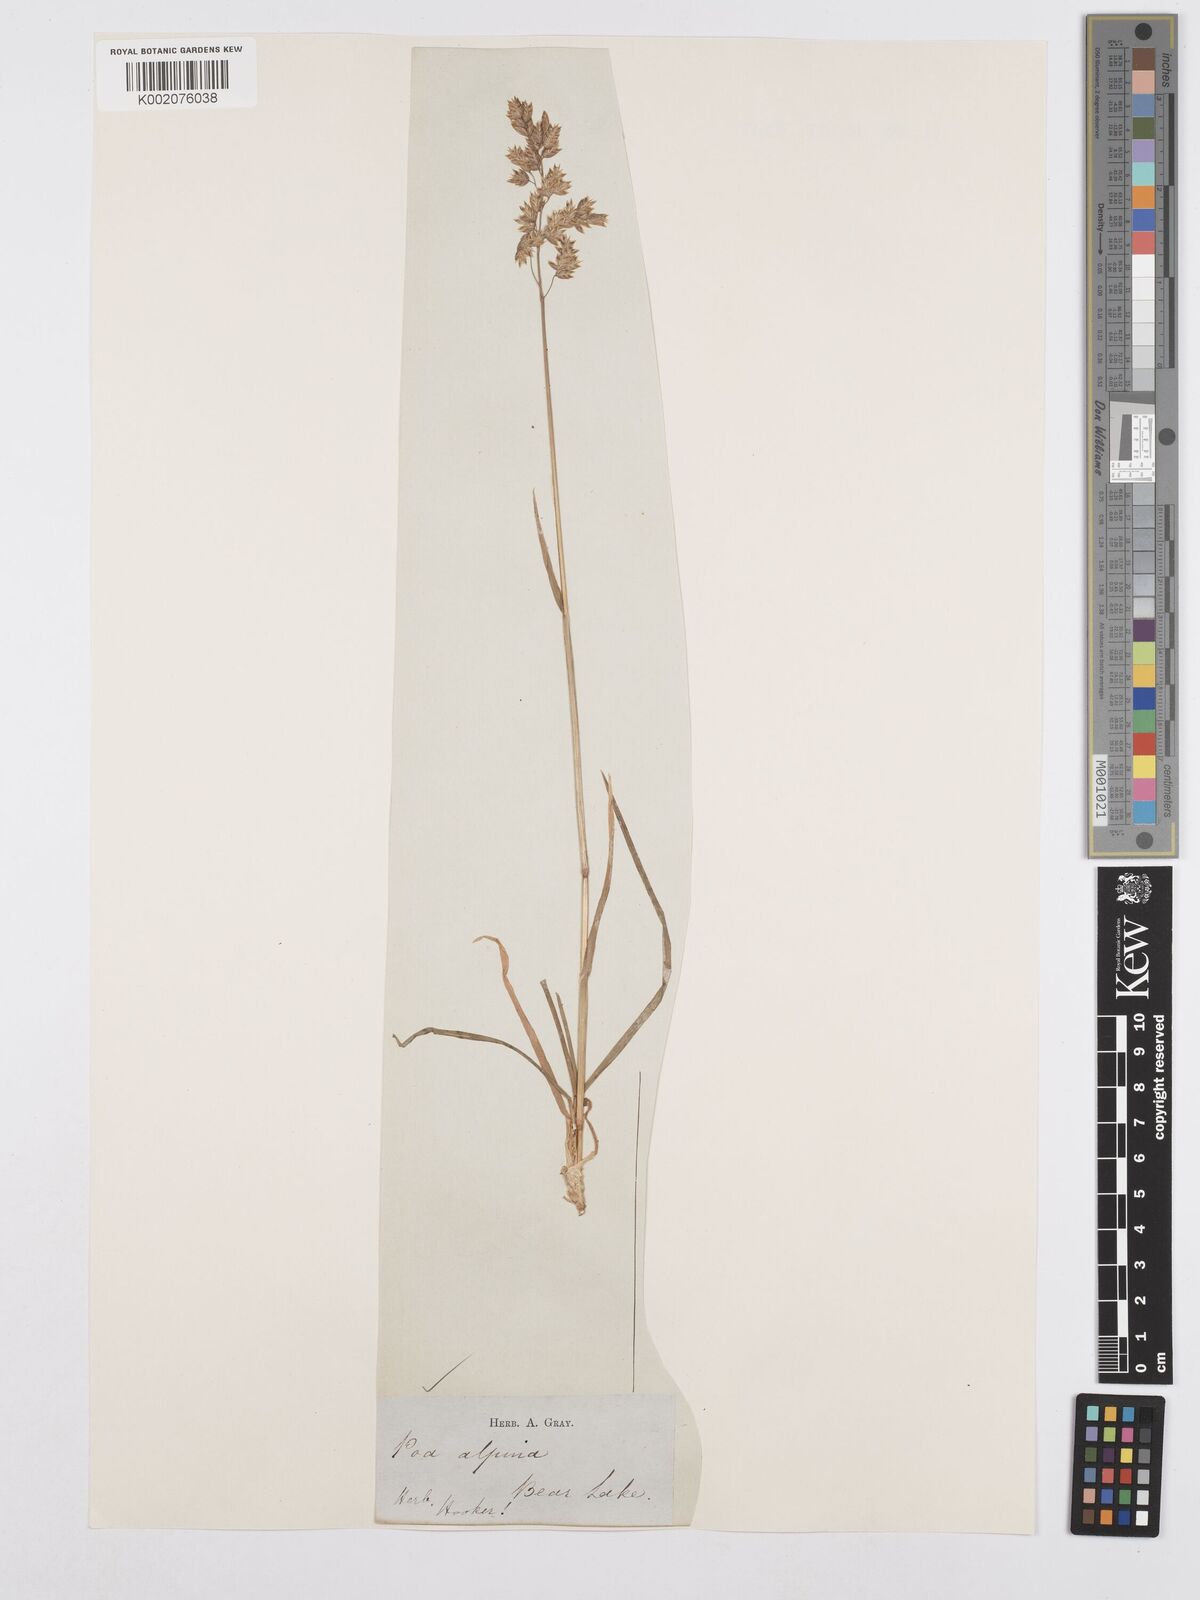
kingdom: Plantae
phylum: Tracheophyta
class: Liliopsida
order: Poales
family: Poaceae
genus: Poa
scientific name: Poa alpina
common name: Alpine bluegrass
